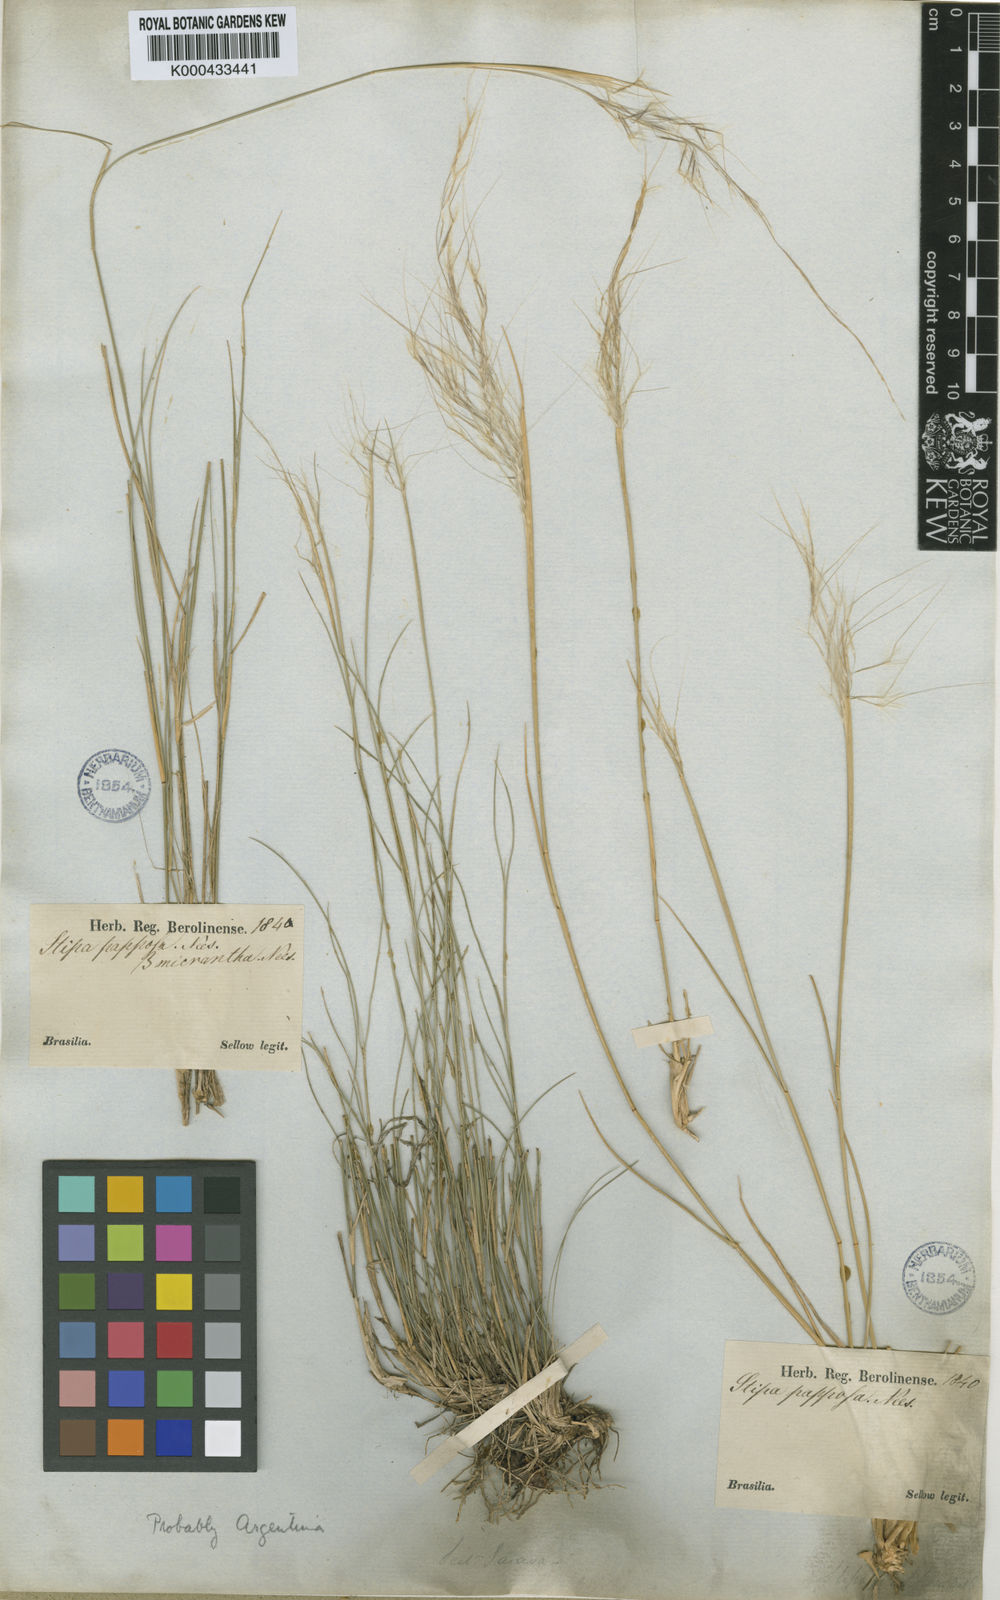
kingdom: Plantae
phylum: Tracheophyta
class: Liliopsida
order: Poales
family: Poaceae
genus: Jarava
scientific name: Jarava plumosa
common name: South american rice grass
